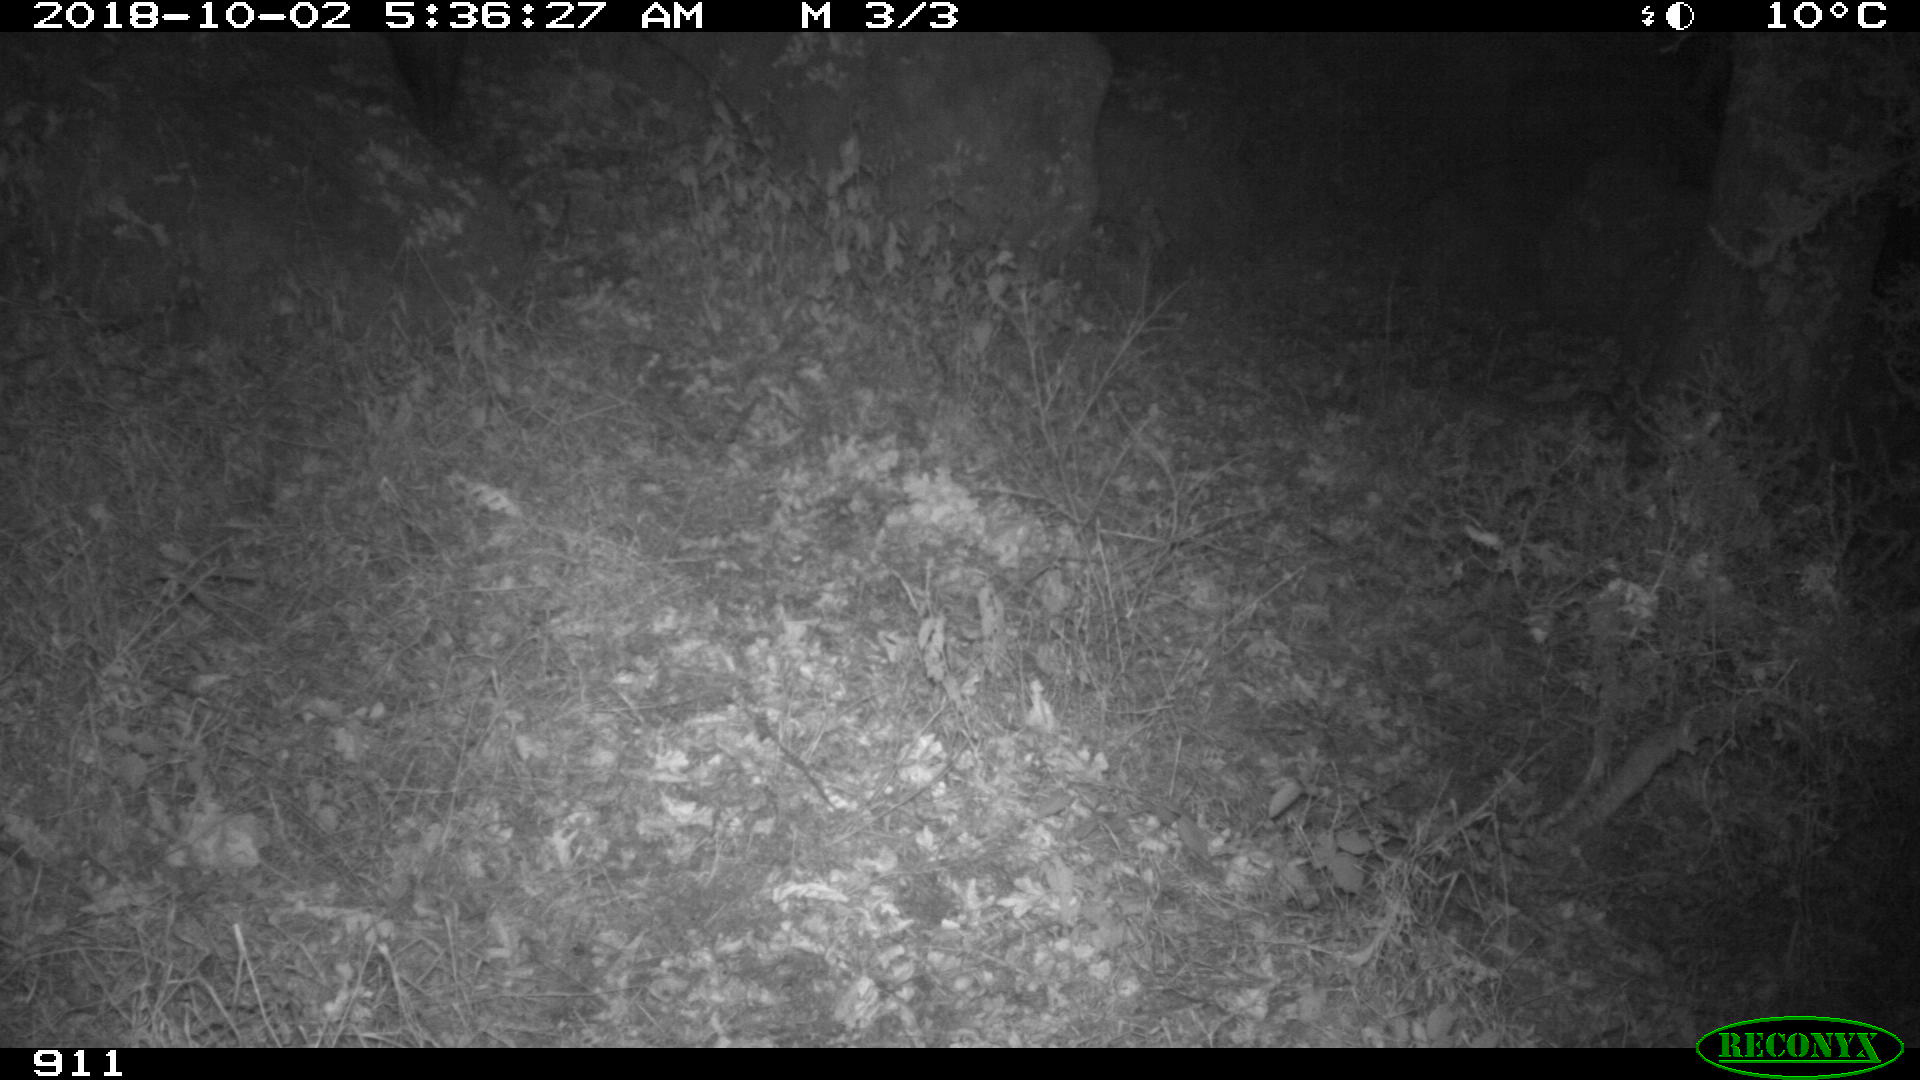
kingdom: Animalia
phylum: Chordata
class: Mammalia
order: Artiodactyla
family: Suidae
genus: Sus
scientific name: Sus scrofa
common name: Wild boar
